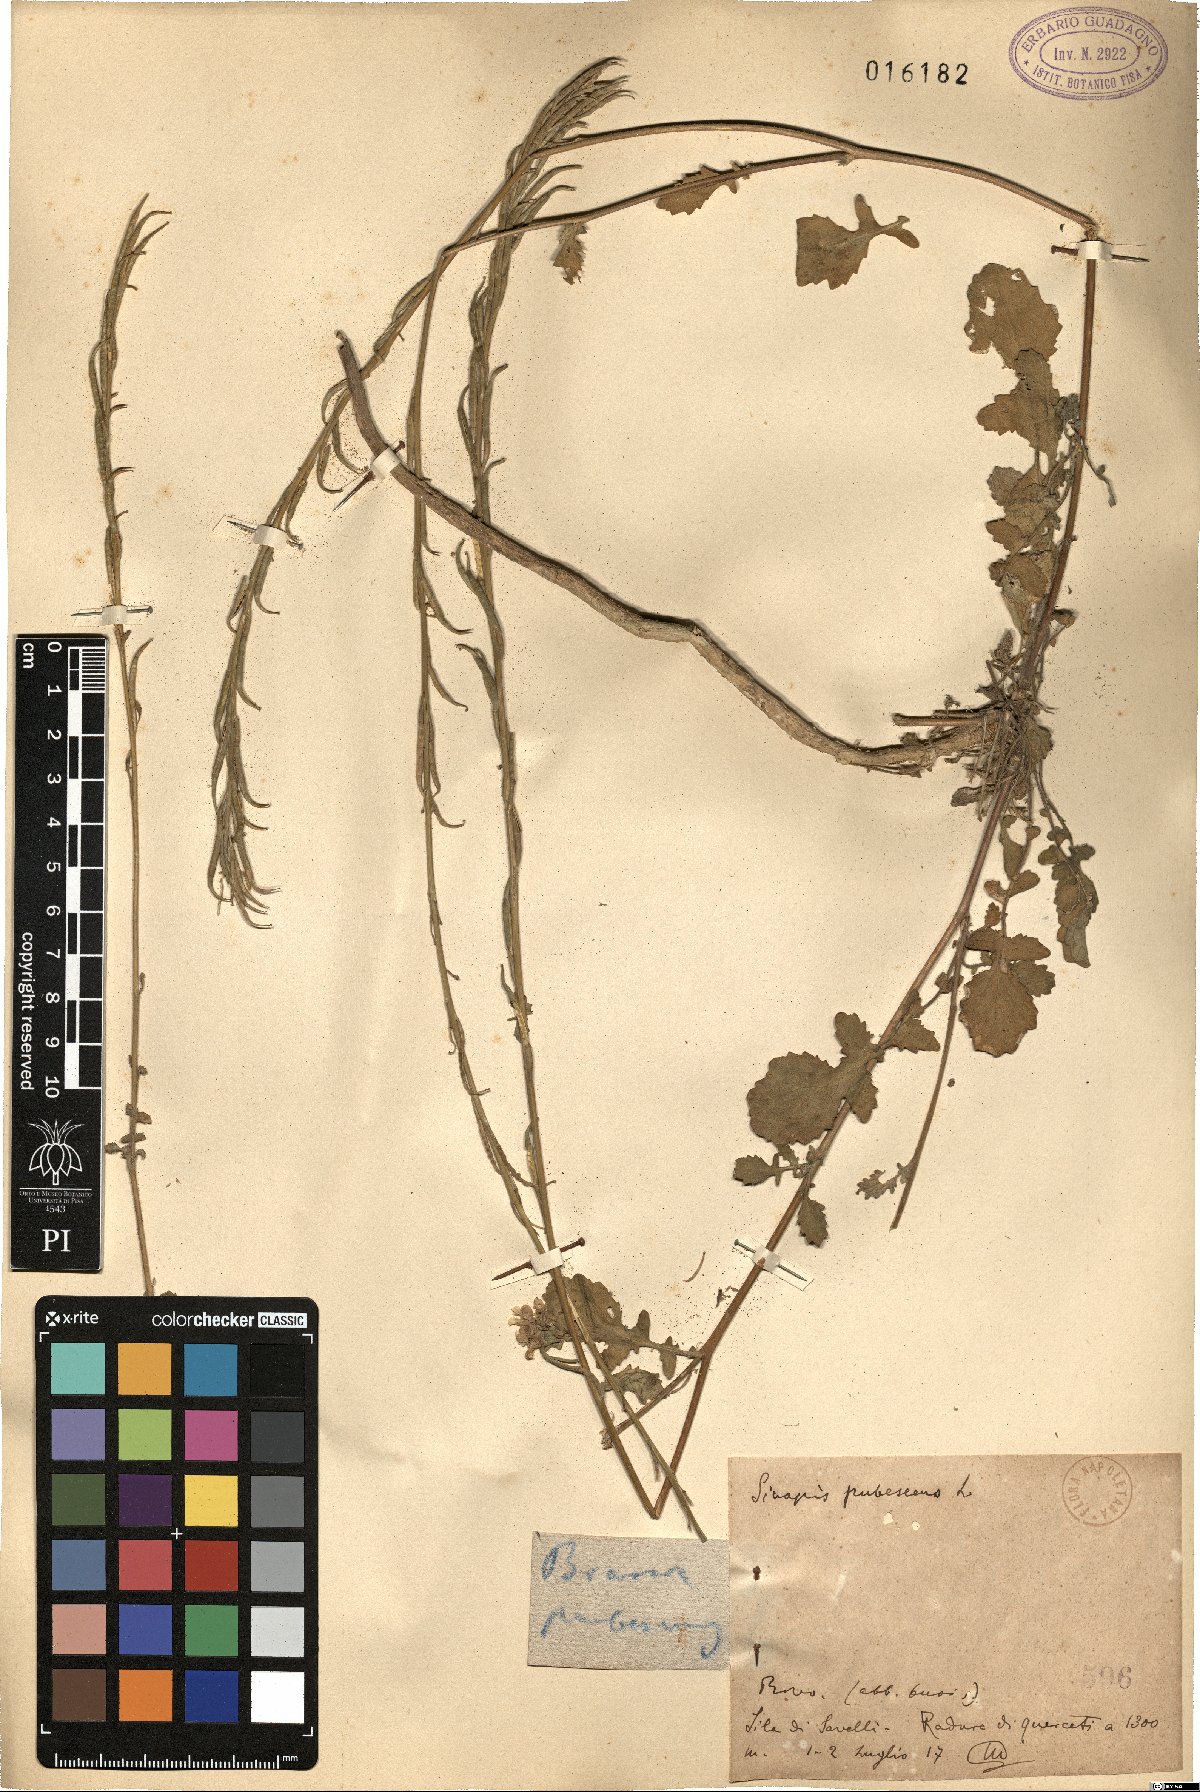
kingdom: Plantae
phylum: Tracheophyta
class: Magnoliopsida
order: Brassicales
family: Brassicaceae
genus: Sinapis
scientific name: Sinapis pubescens
